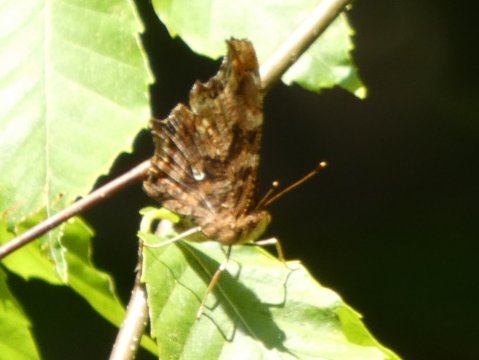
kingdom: Animalia
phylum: Arthropoda
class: Insecta
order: Lepidoptera
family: Nymphalidae
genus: Polygonia
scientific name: Polygonia interrogationis
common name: Question Mark
